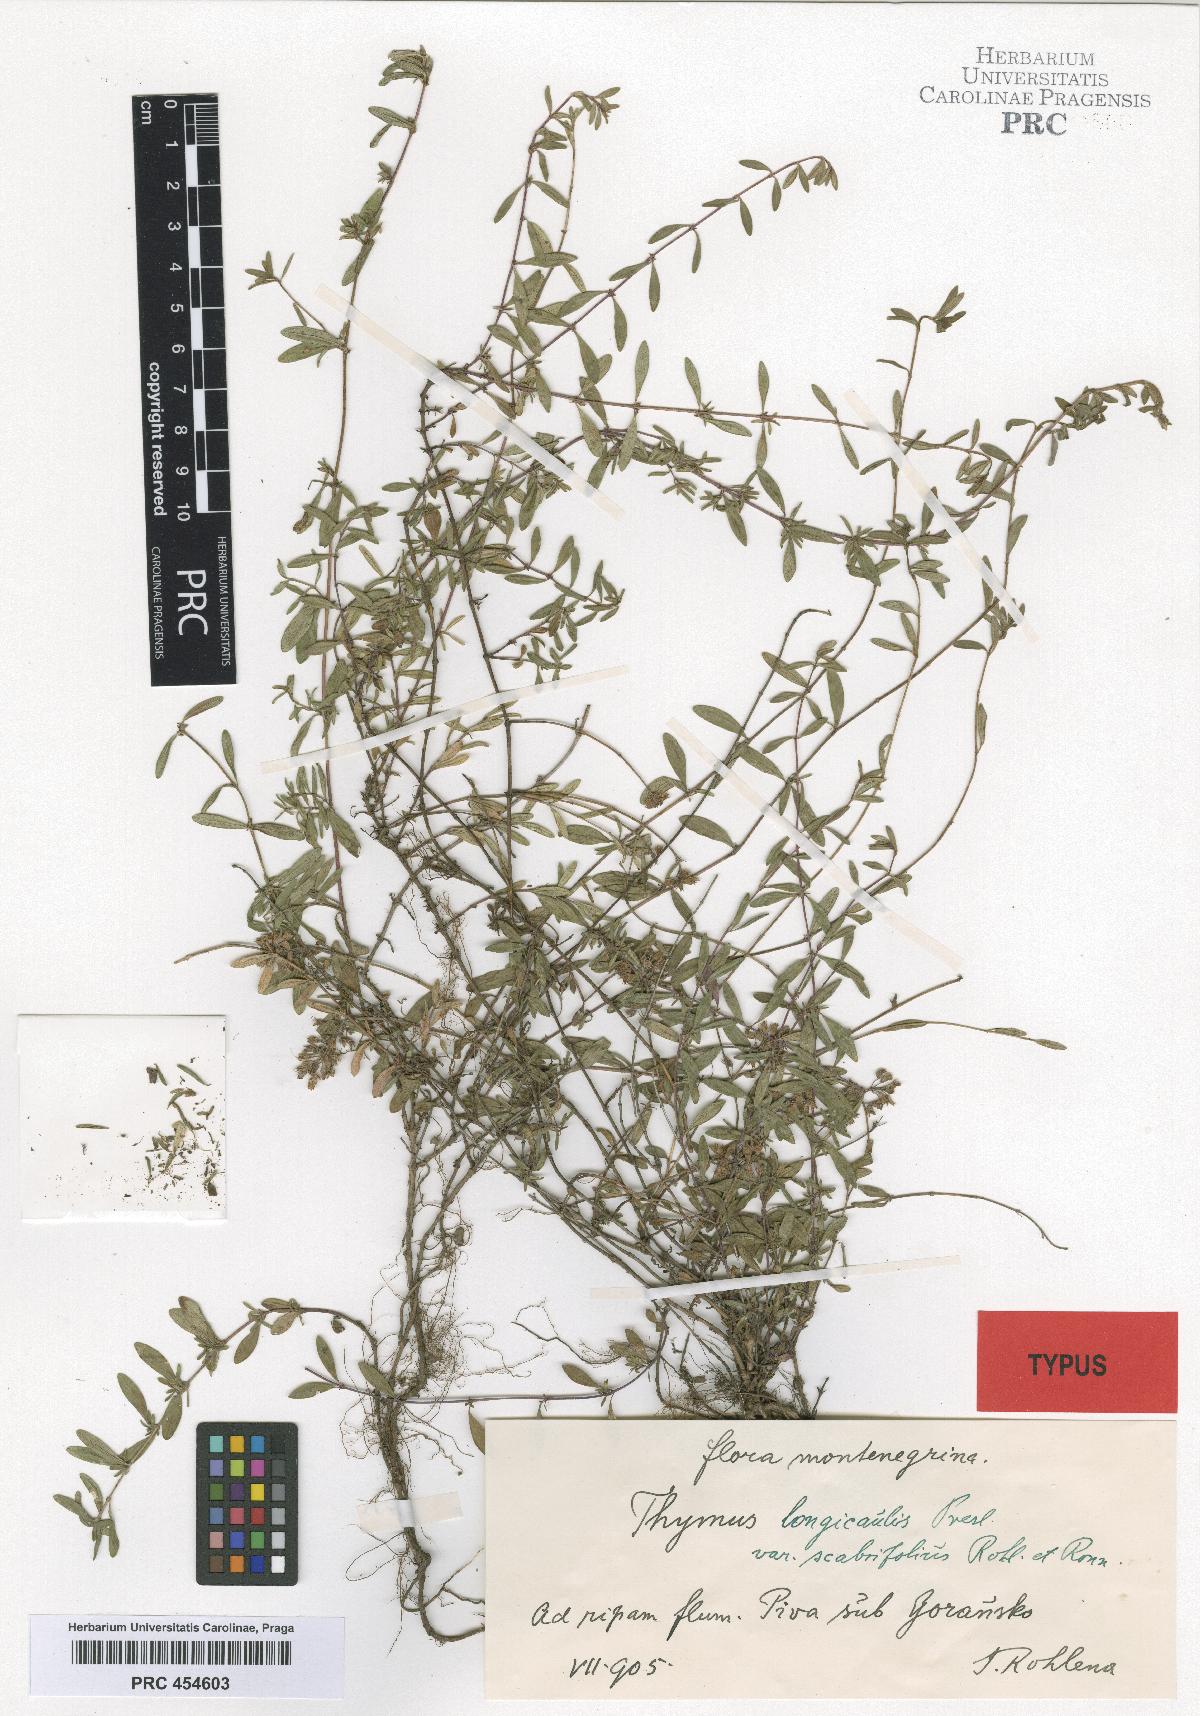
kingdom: Plantae
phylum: Tracheophyta
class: Magnoliopsida
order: Lamiales
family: Lamiaceae
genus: Thymus
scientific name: Thymus longicaulis
